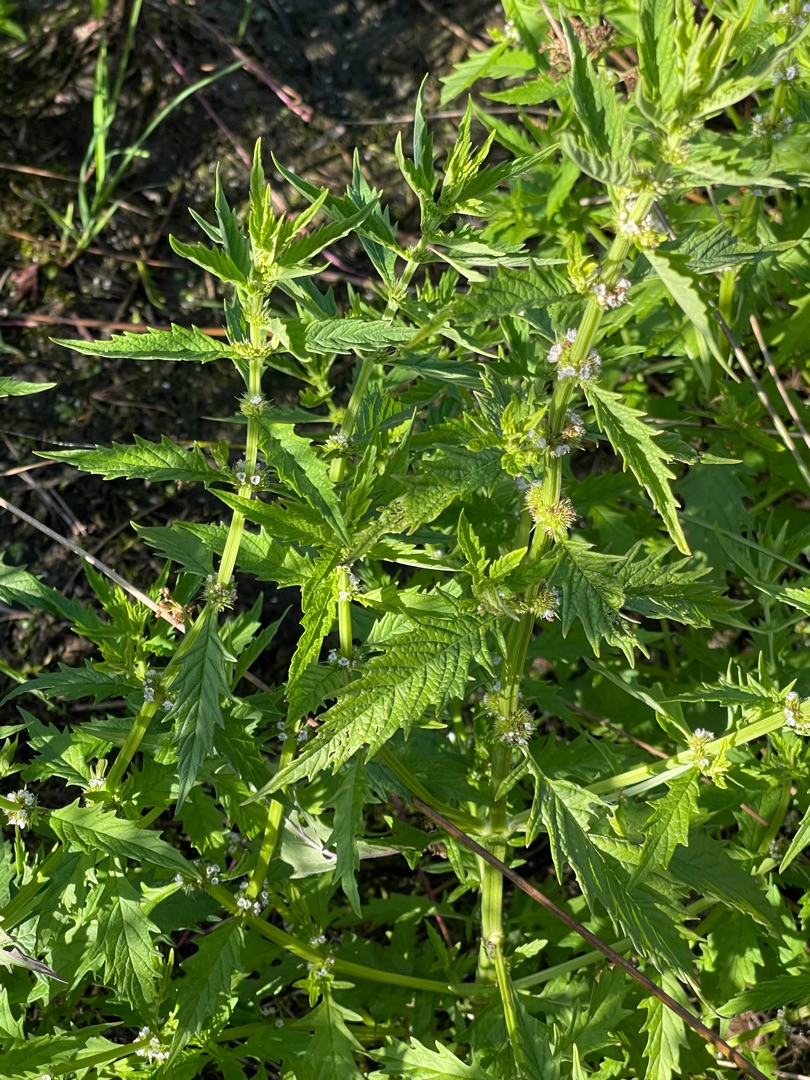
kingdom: Plantae
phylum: Tracheophyta
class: Magnoliopsida
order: Lamiales
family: Lamiaceae
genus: Lycopus
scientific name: Lycopus europaeus
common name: Sværtevæld
